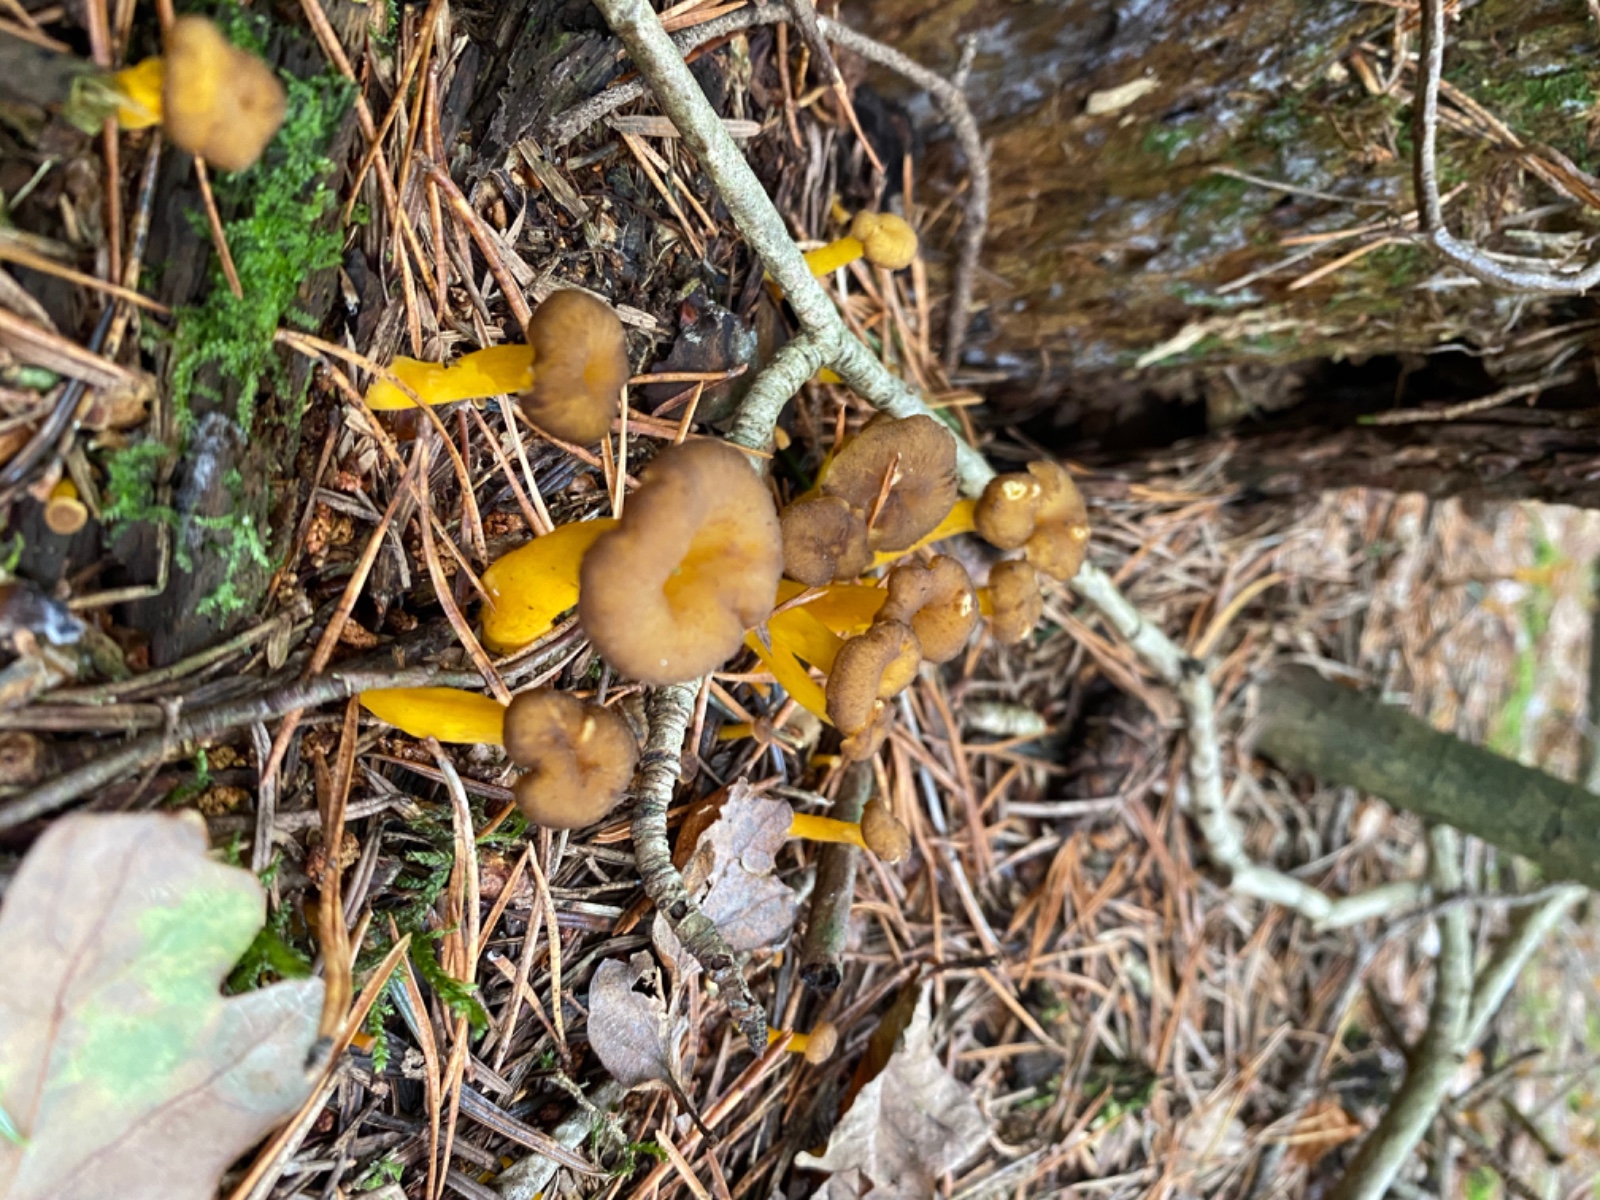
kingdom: Fungi
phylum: Basidiomycota
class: Agaricomycetes
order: Cantharellales
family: Hydnaceae
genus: Craterellus
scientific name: Craterellus tubaeformis
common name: tragt-kantarel
